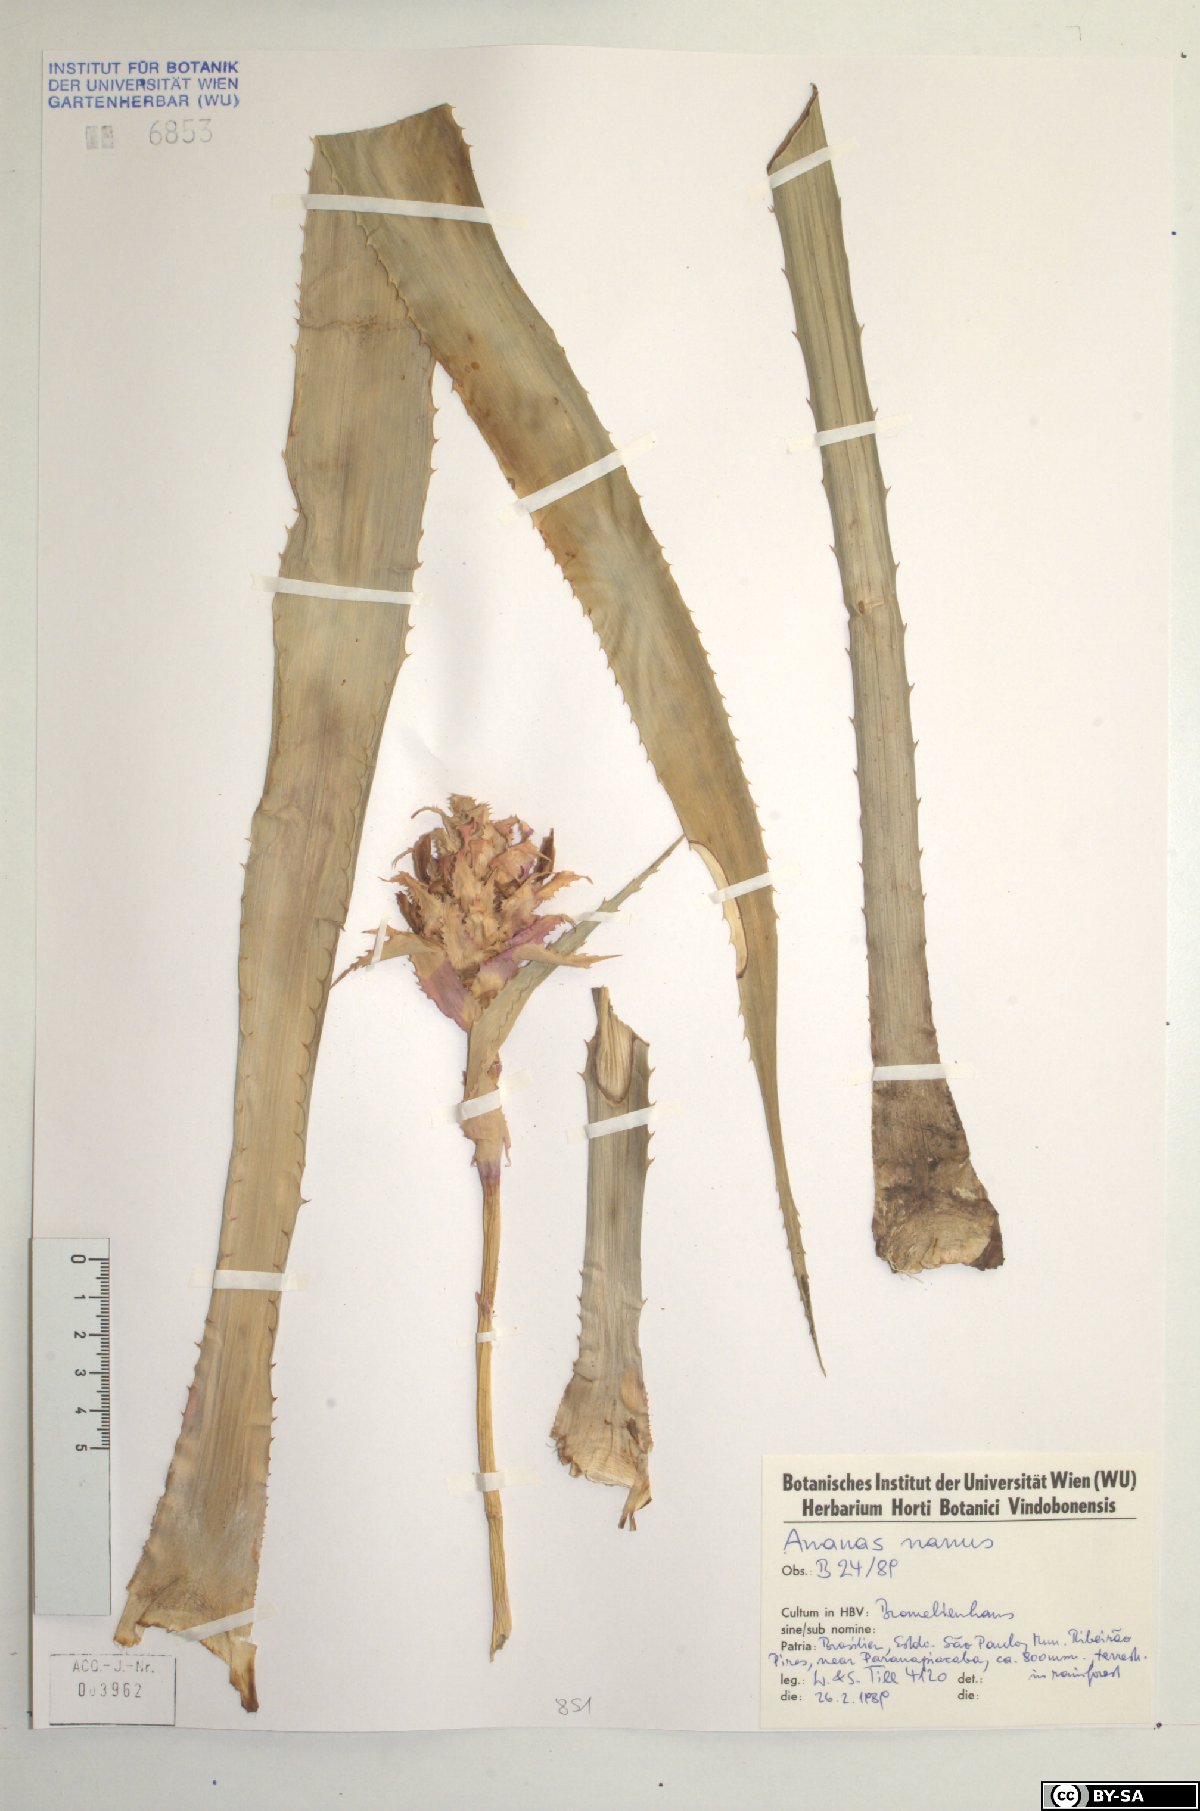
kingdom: Plantae
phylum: Tracheophyta
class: Liliopsida
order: Poales
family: Bromeliaceae
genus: Ananas
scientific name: Ananas comosus
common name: Pineapple
